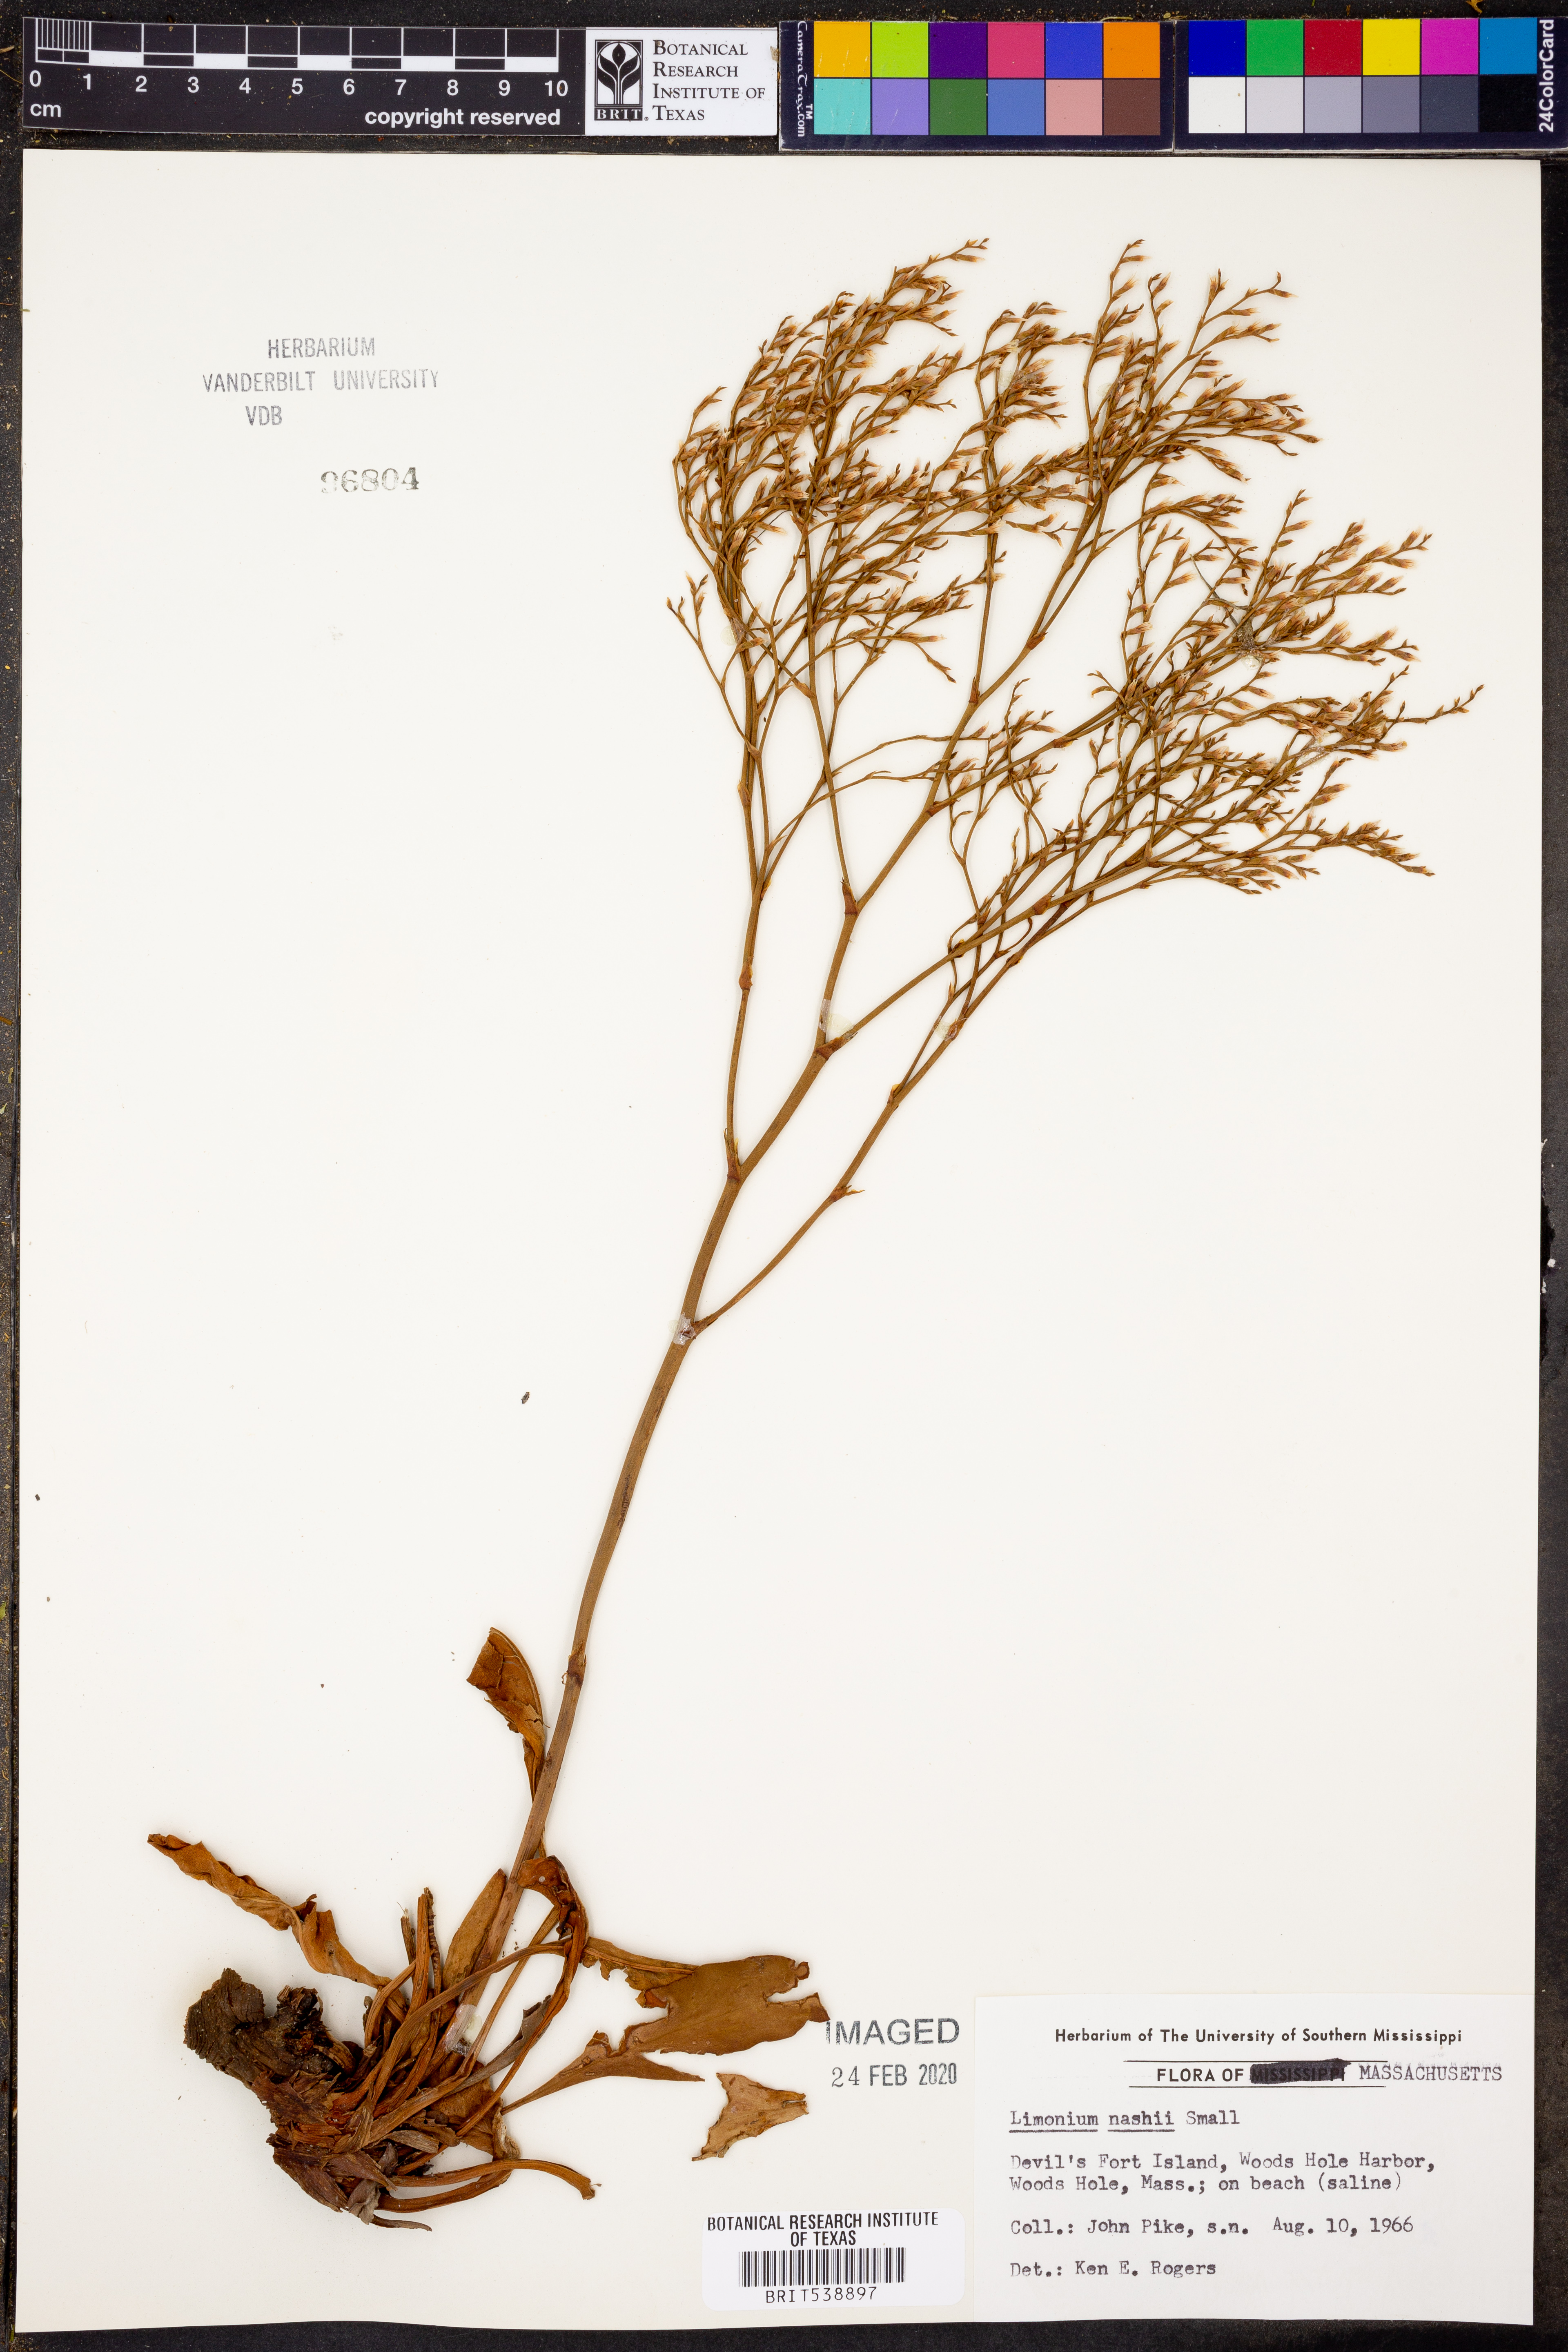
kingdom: Plantae
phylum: Tracheophyta
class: Magnoliopsida
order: Caryophyllales
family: Plumbaginaceae
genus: Limonium
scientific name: Limonium carolinianum
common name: Carolina sea lavender
